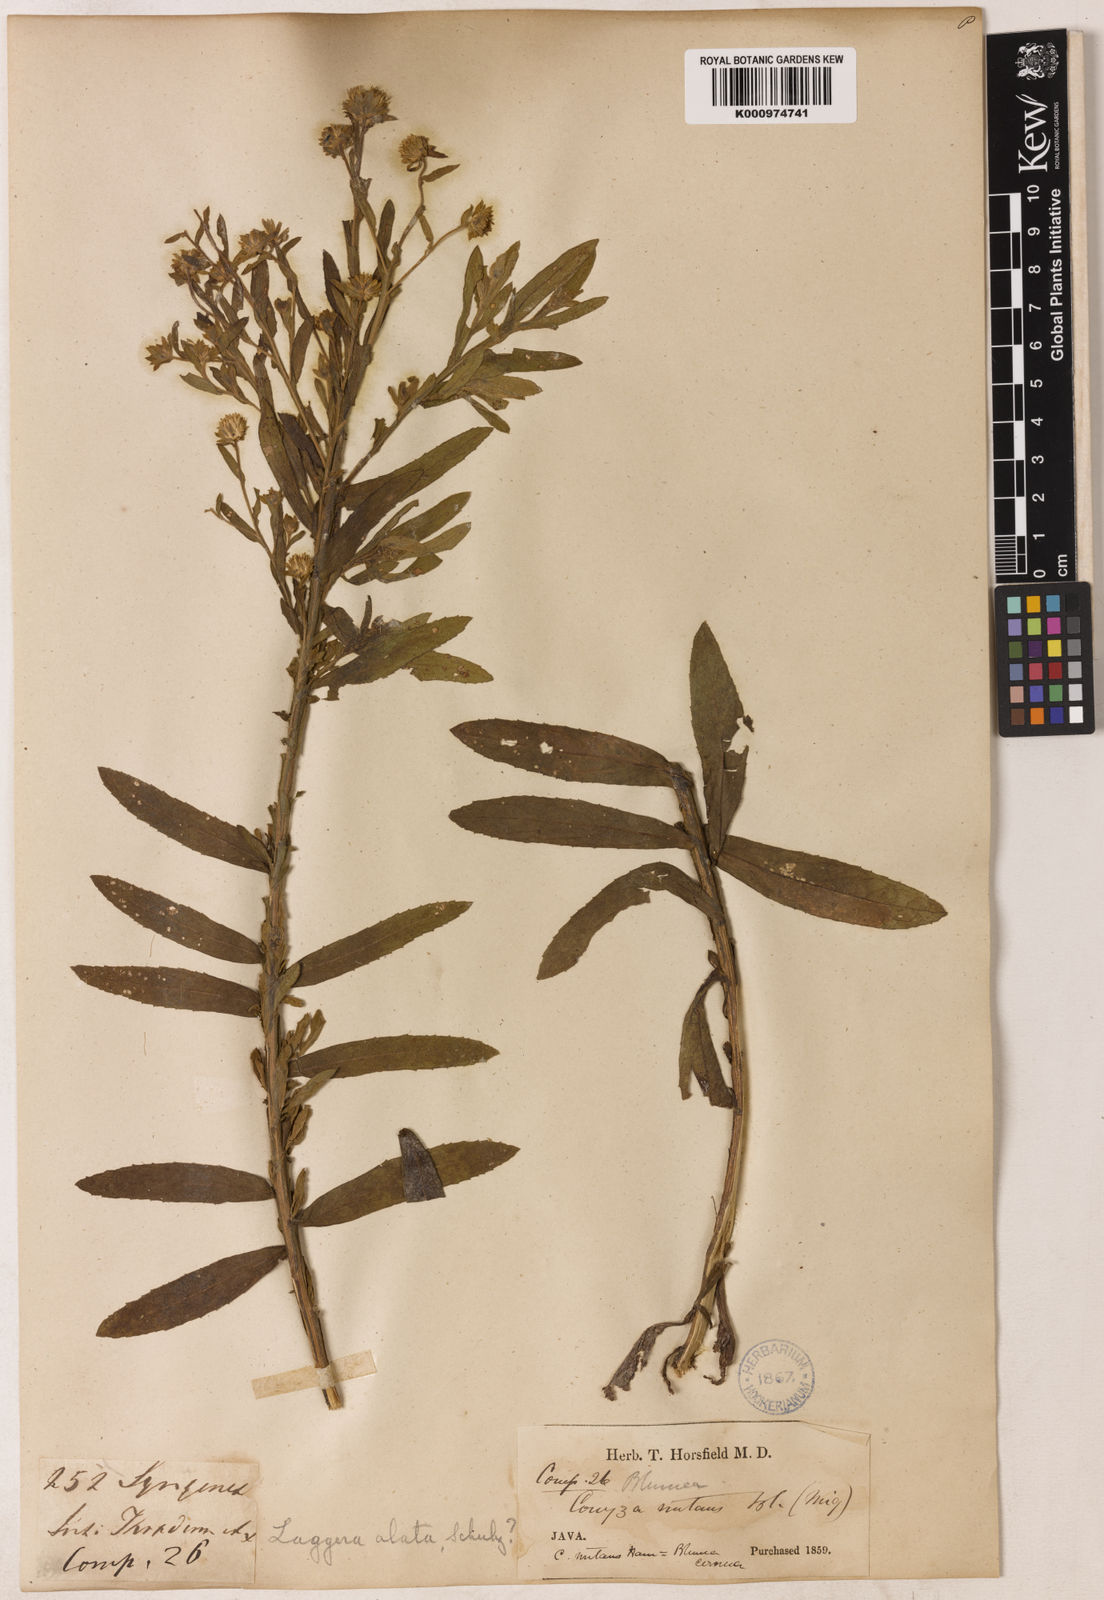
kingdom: Plantae
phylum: Tracheophyta
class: Magnoliopsida
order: Asterales
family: Asteraceae
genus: Laggera
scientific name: Laggera alata
